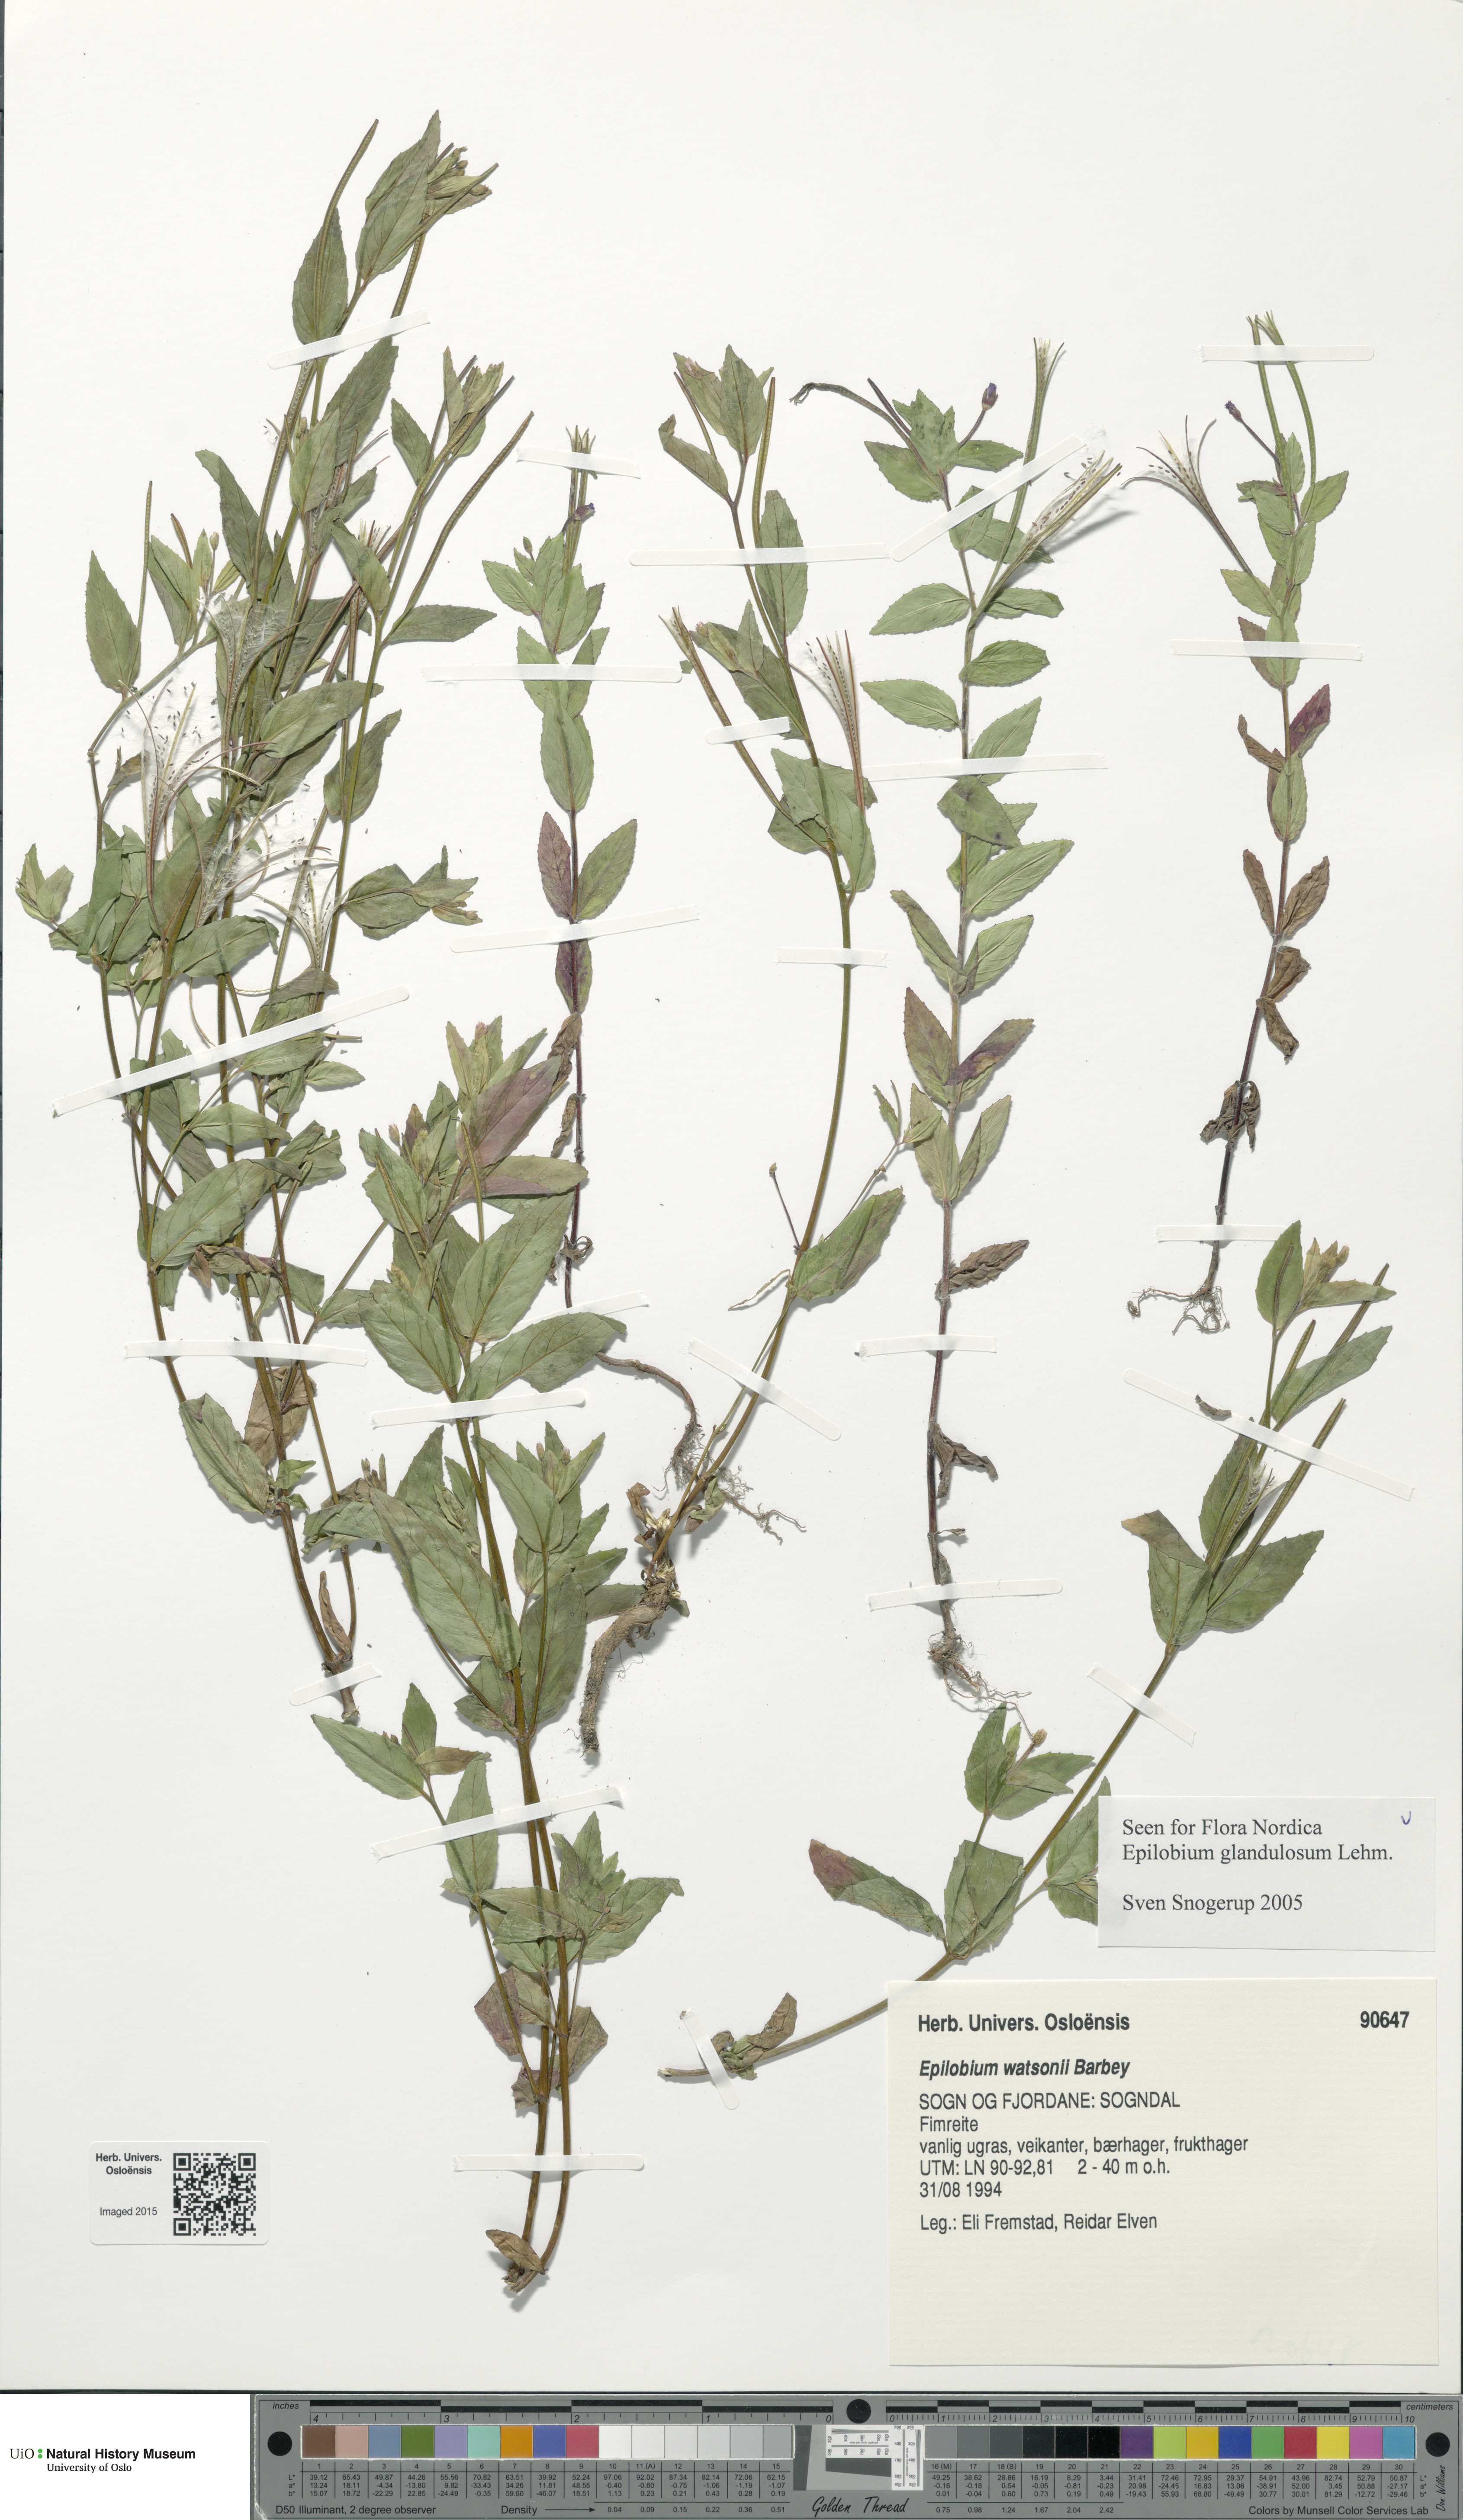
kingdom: Plantae
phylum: Tracheophyta
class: Magnoliopsida
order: Myrtales
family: Onagraceae
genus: Epilobium
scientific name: Epilobium ciliatum
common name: American willowherb
